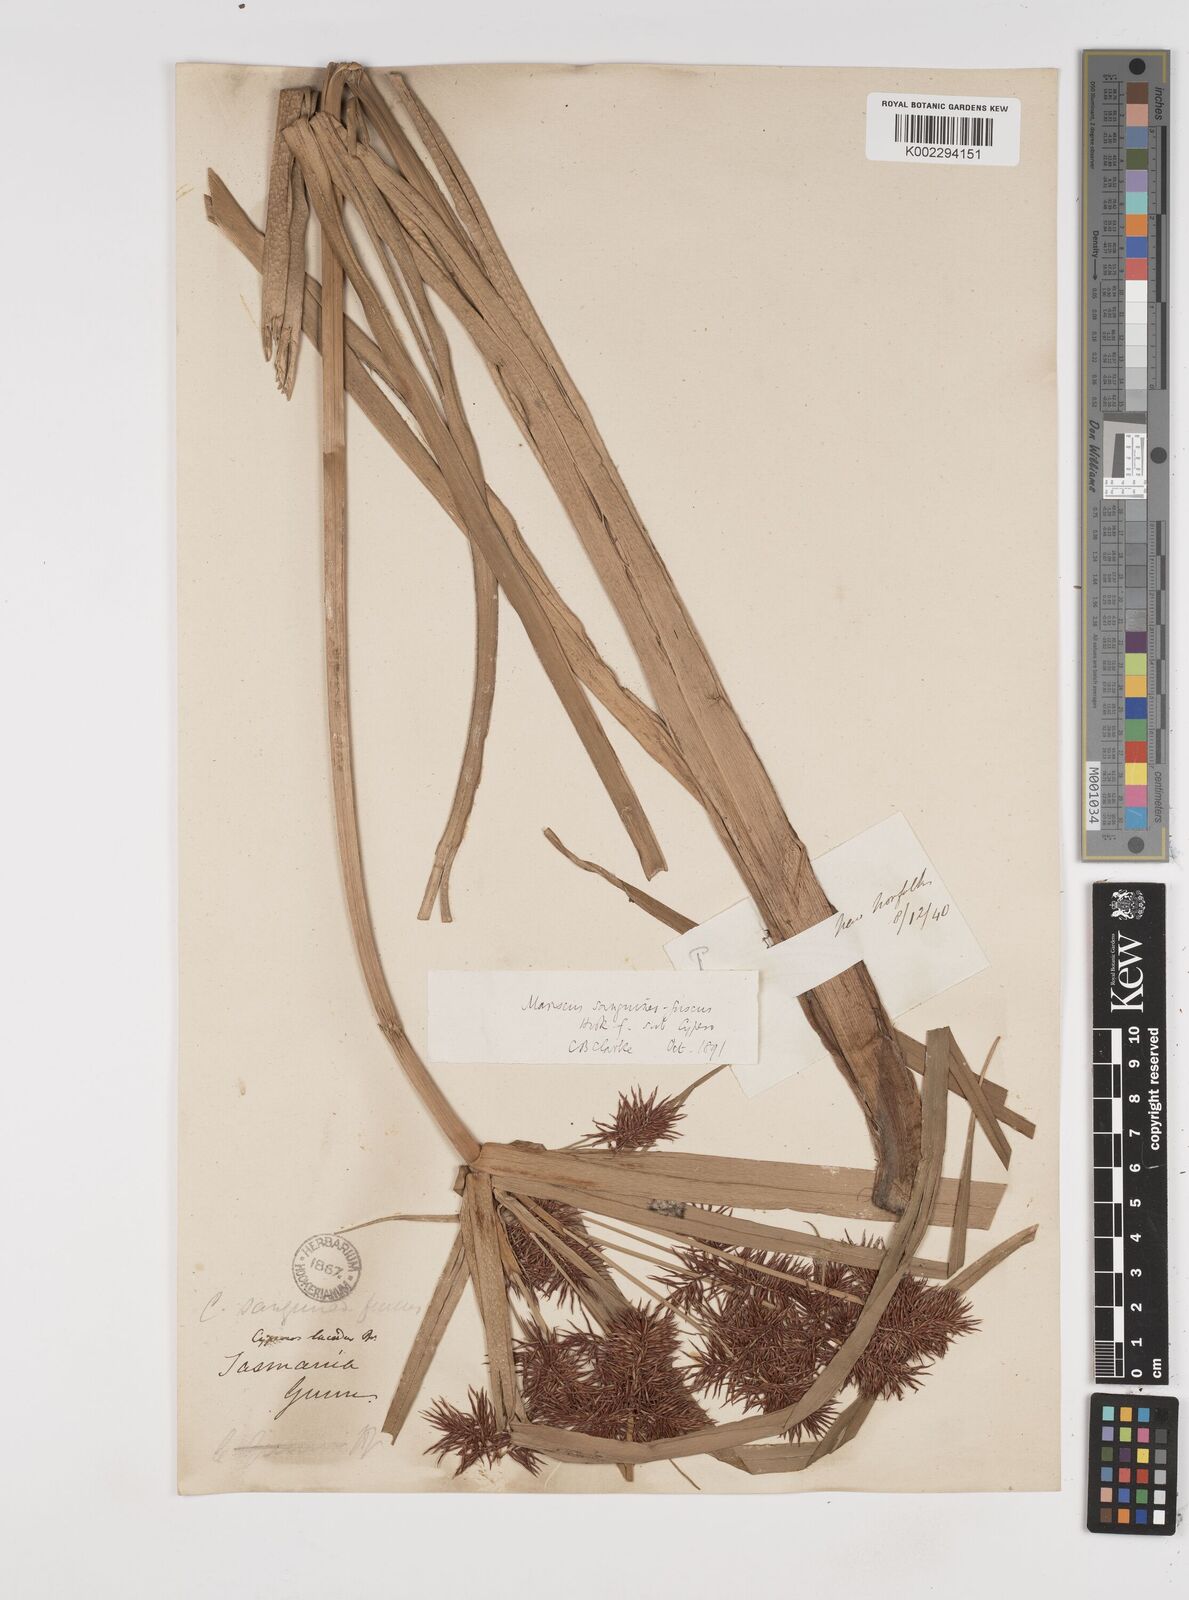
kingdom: Plantae
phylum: Tracheophyta
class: Liliopsida
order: Poales
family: Cyperaceae
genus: Cyperus
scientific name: Cyperus lucidus
